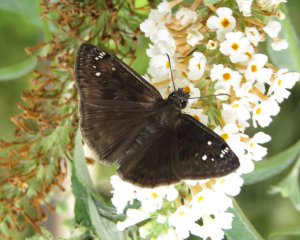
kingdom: Animalia
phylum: Arthropoda
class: Insecta
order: Lepidoptera
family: Hesperiidae
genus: Gesta
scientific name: Gesta
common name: Horace's Duskywing
